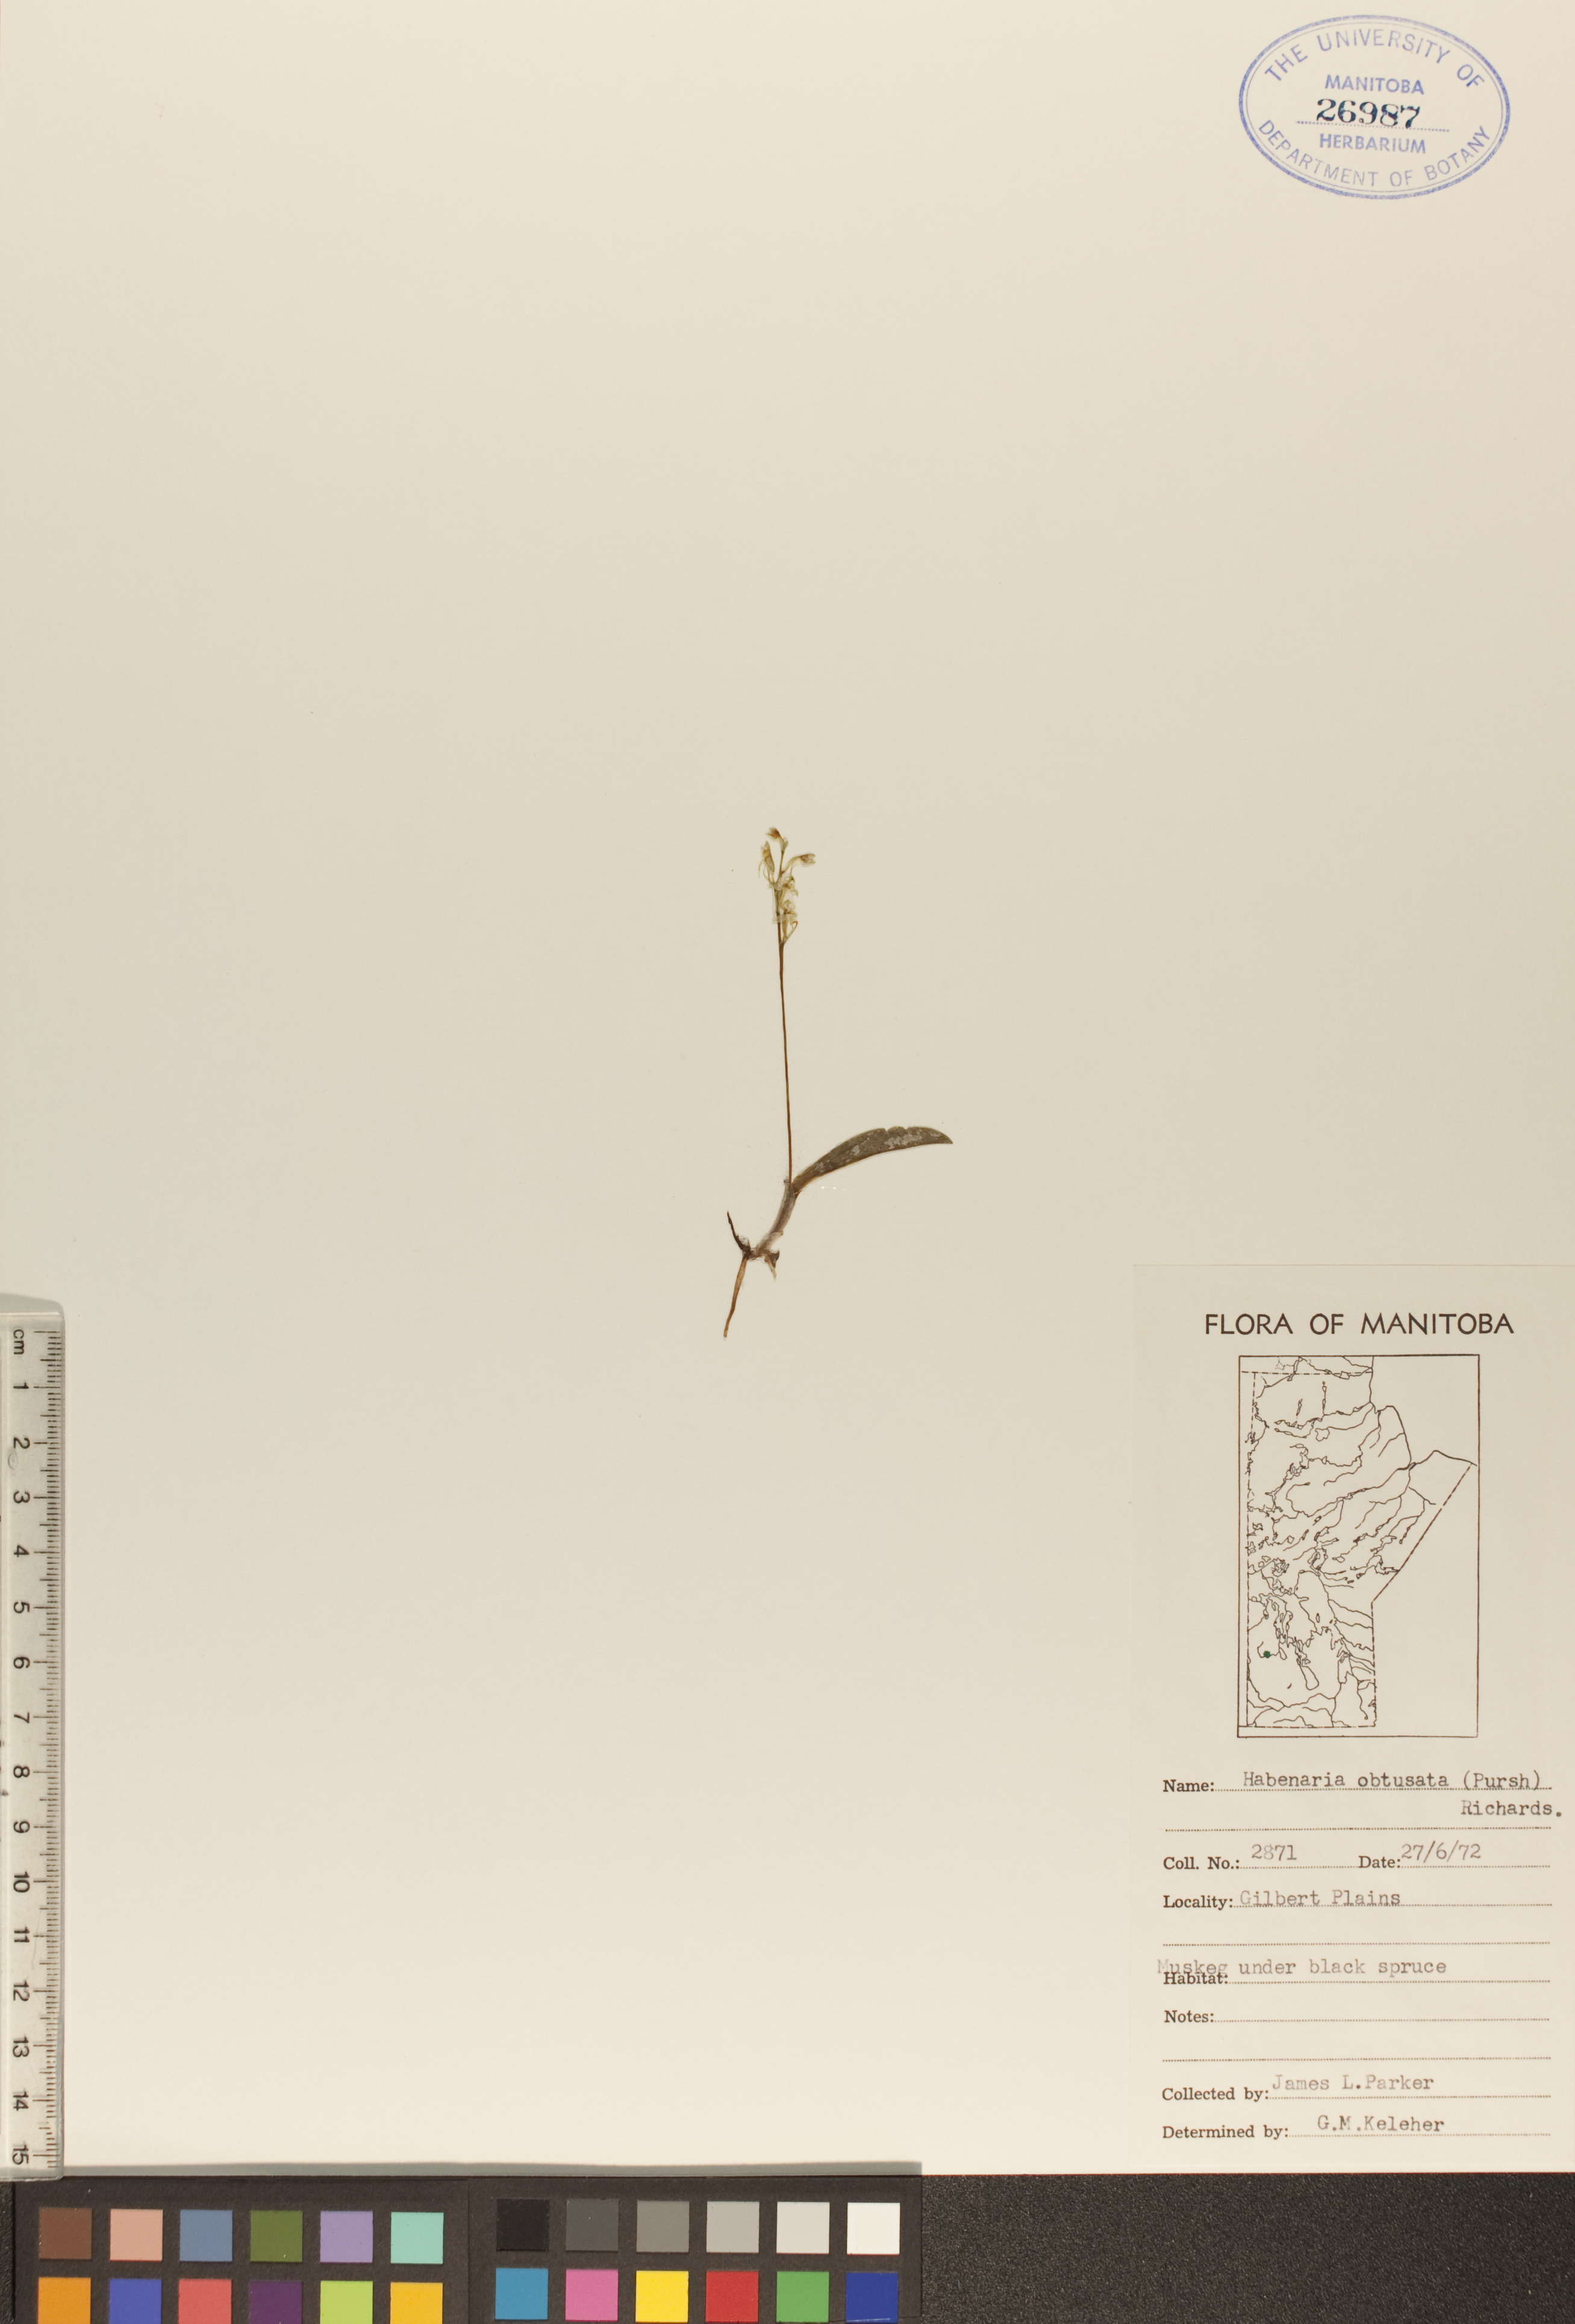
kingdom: Plantae
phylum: Tracheophyta
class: Liliopsida
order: Asparagales
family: Orchidaceae
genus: Platanthera
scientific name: Platanthera obtusata
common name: Blunt bog orchid
